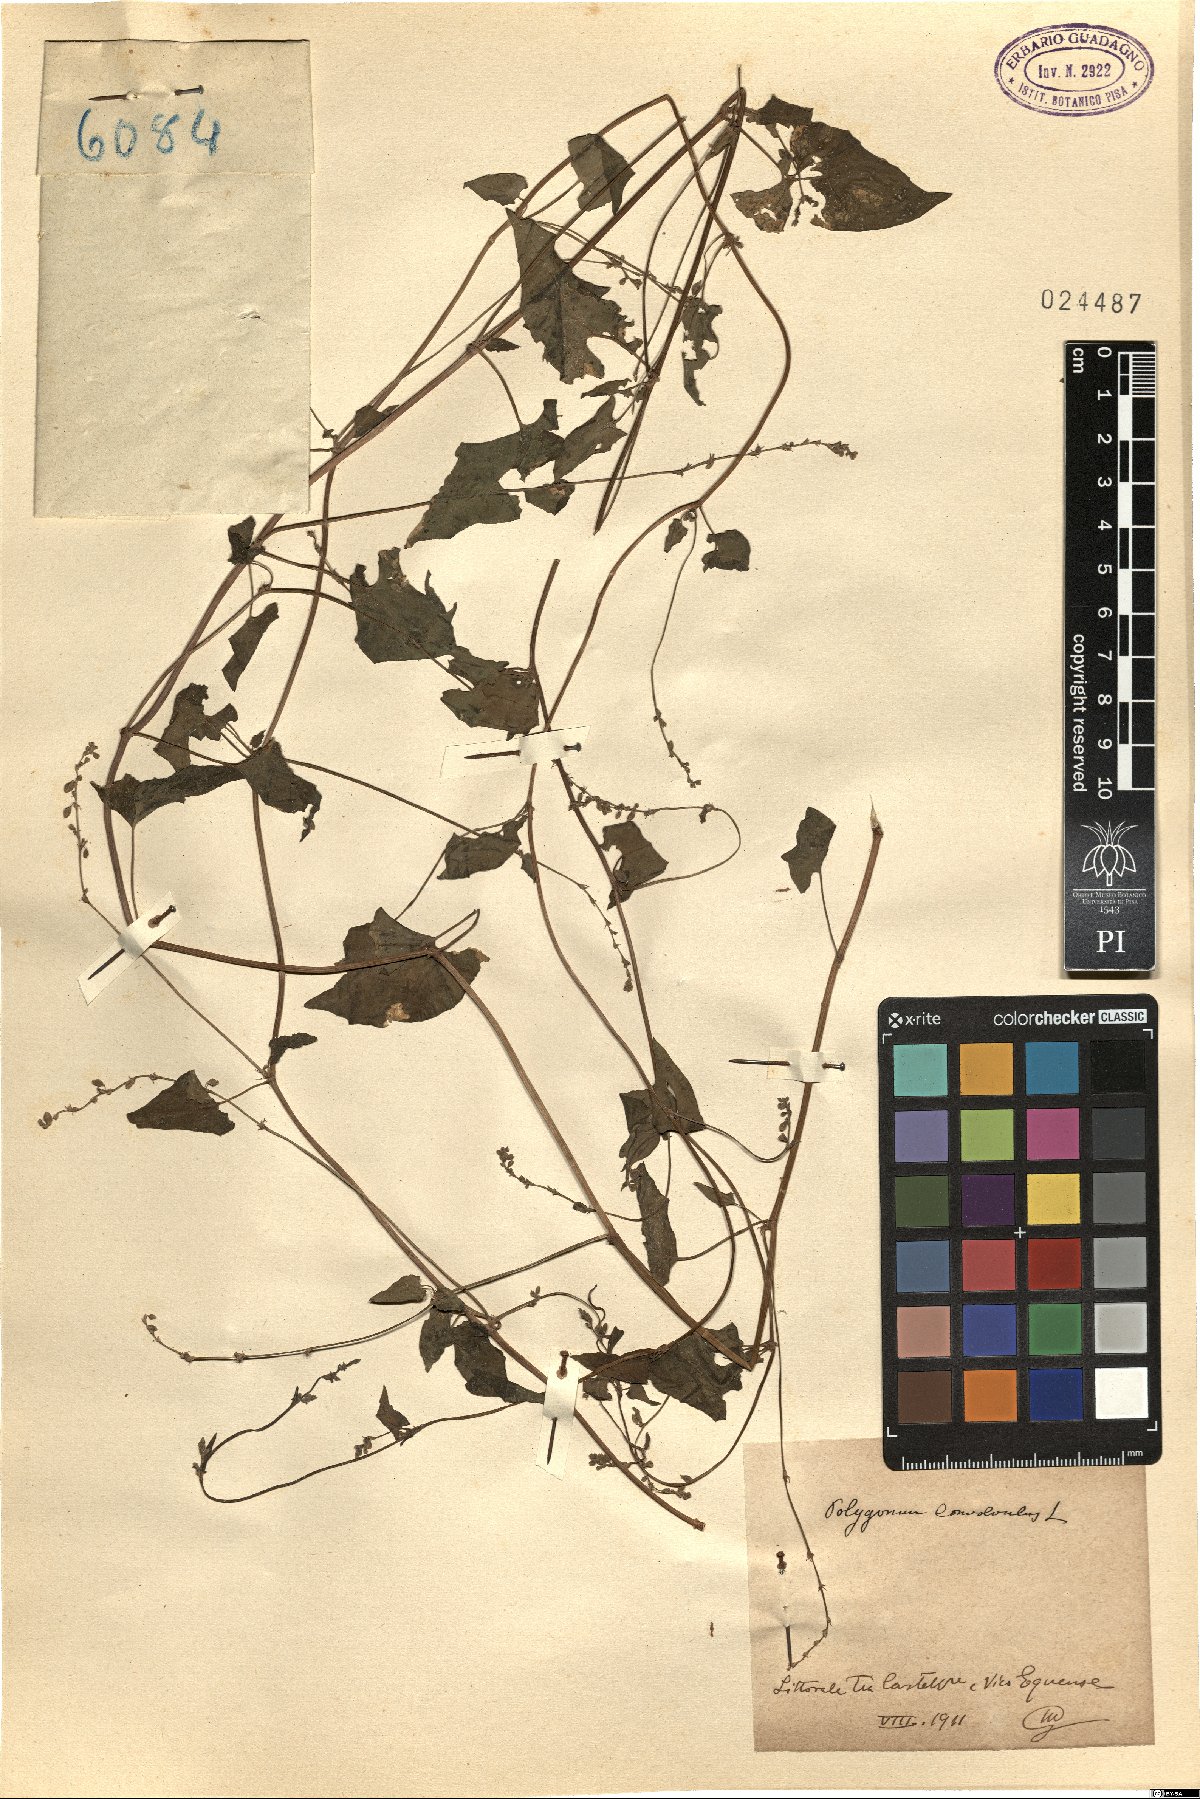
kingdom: Plantae
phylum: Tracheophyta
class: Magnoliopsida
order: Caryophyllales
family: Polygonaceae
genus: Fallopia
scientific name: Fallopia convolvulus
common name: Black bindweed
